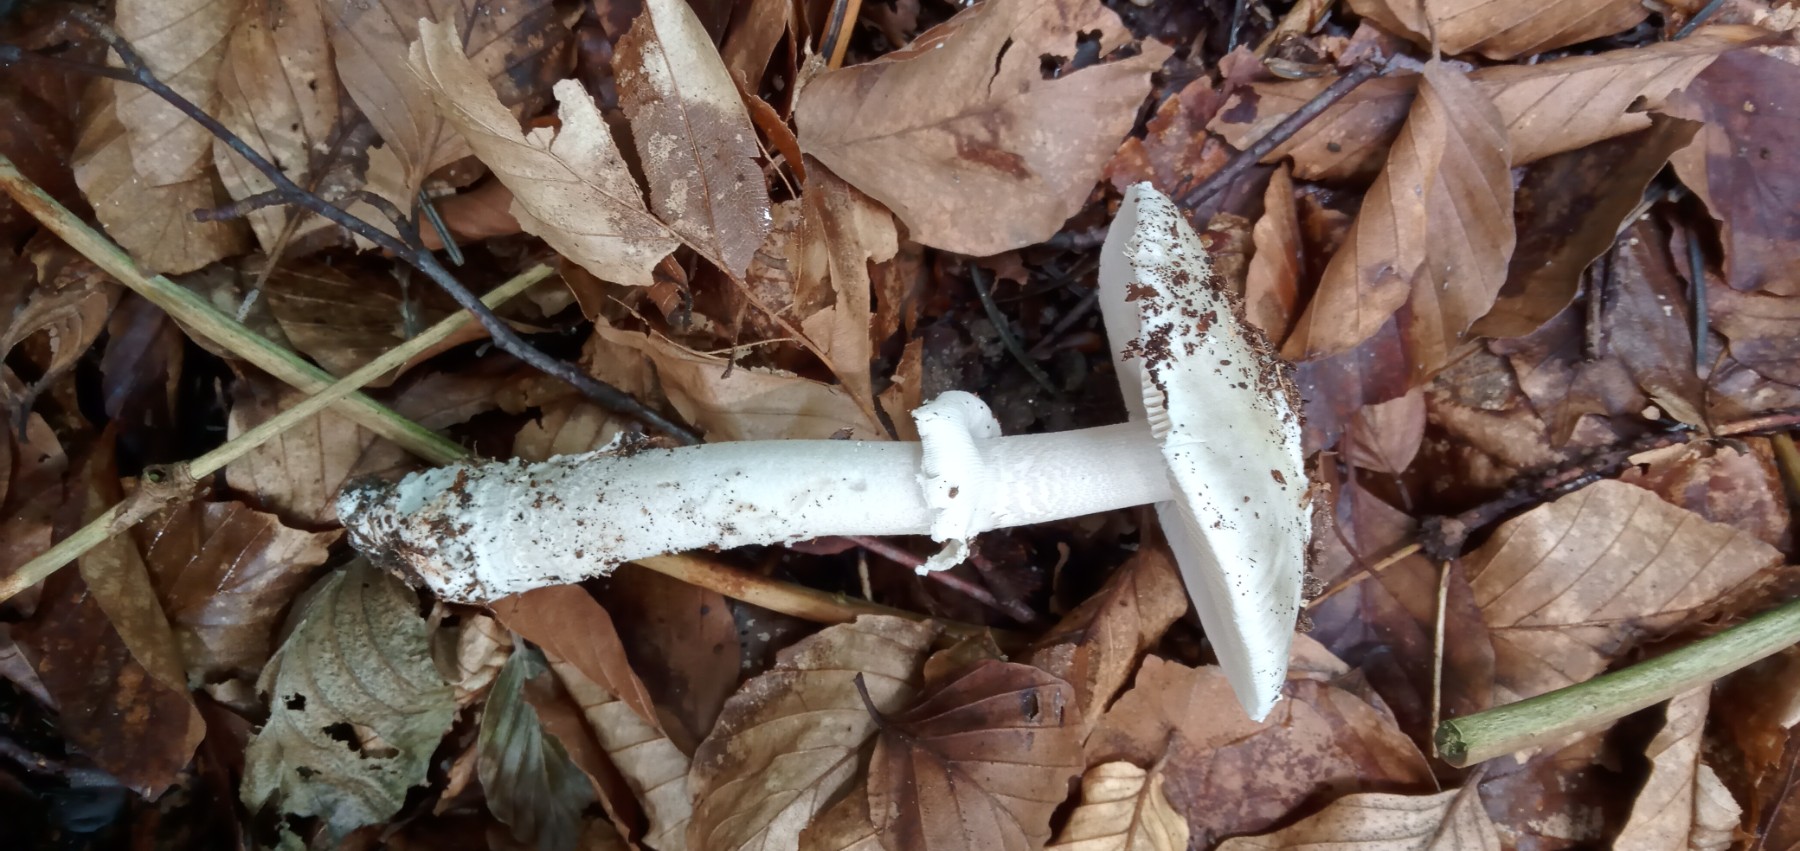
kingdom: Fungi
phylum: Basidiomycota
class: Agaricomycetes
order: Agaricales
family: Amanitaceae
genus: Amanita
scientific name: Amanita
